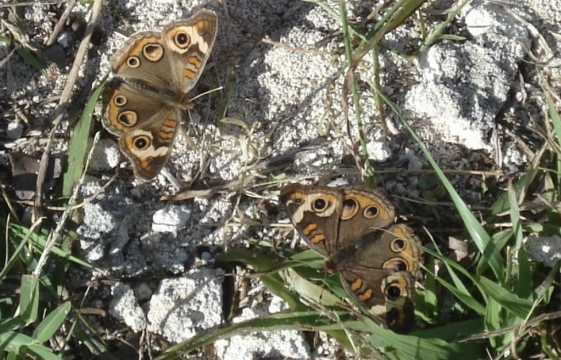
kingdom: Animalia
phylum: Arthropoda
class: Insecta
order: Lepidoptera
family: Nymphalidae
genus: Junonia
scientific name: Junonia coenia
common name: Common Buckeye
